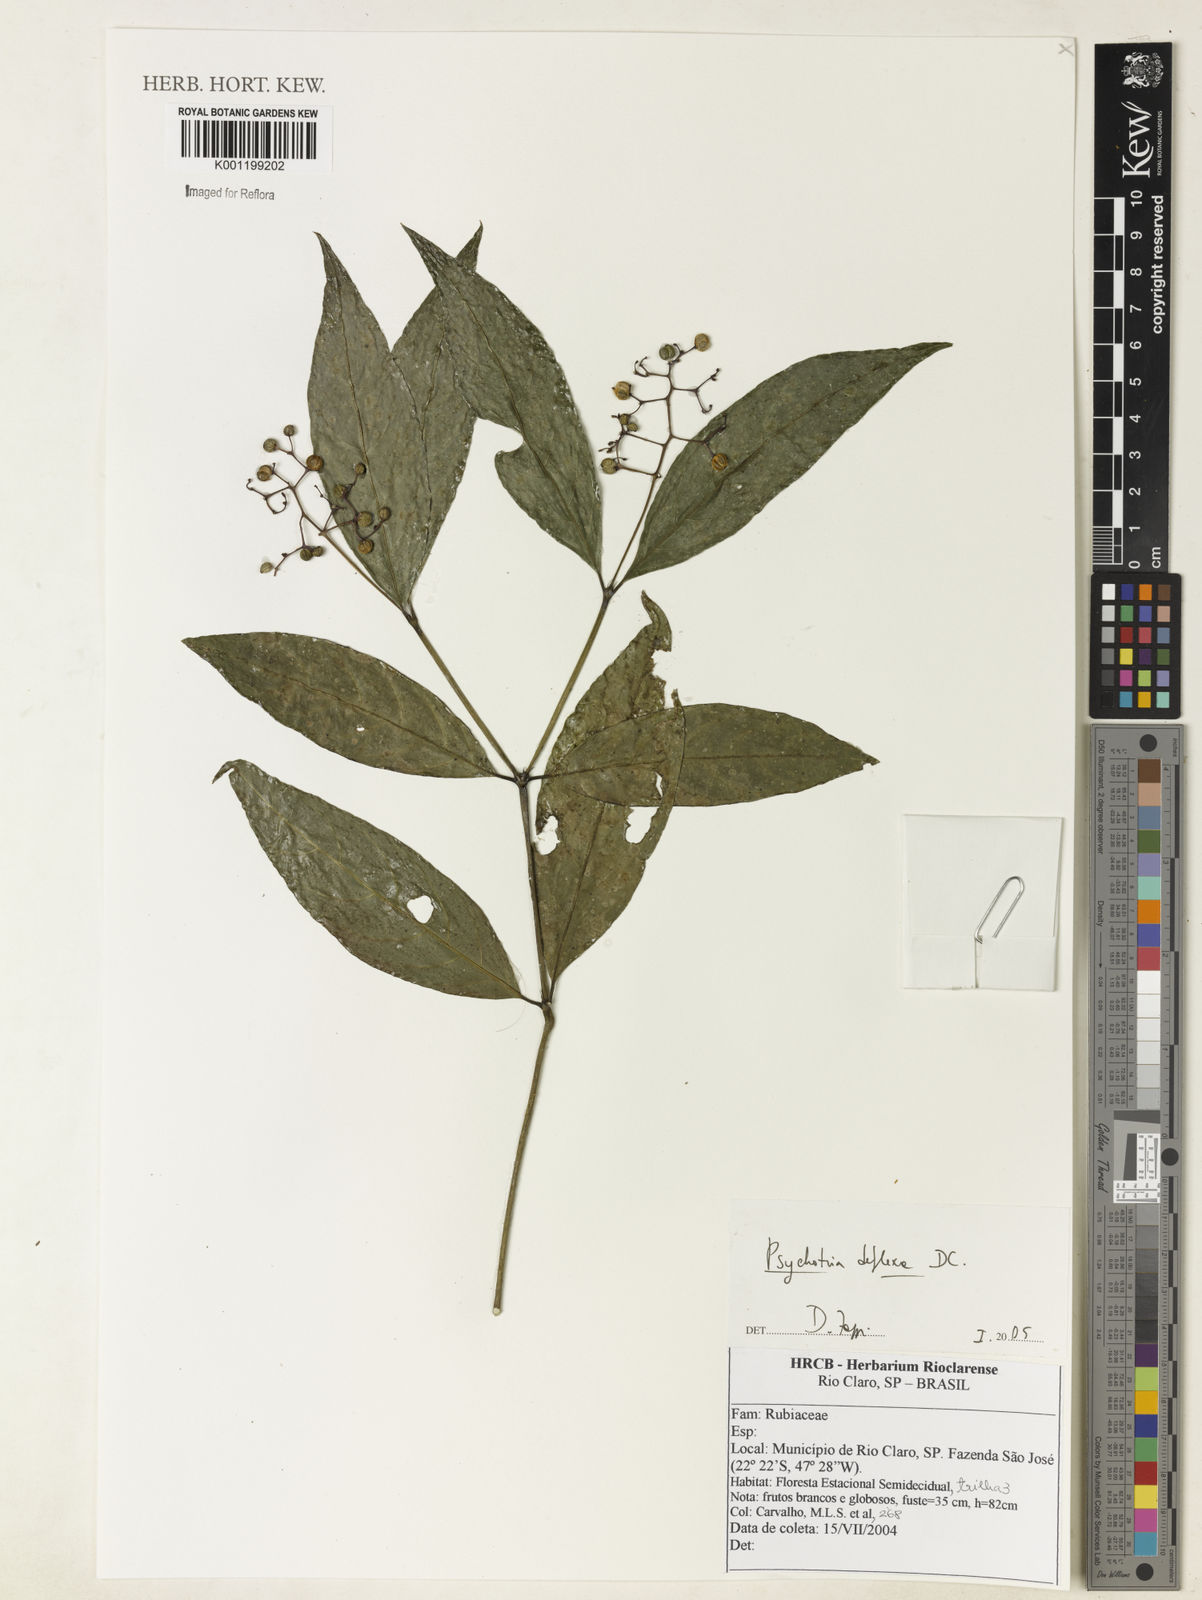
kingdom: Plantae
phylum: Tracheophyta
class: Magnoliopsida
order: Gentianales
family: Rubiaceae
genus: Palicourea
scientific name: Palicourea deflexa
